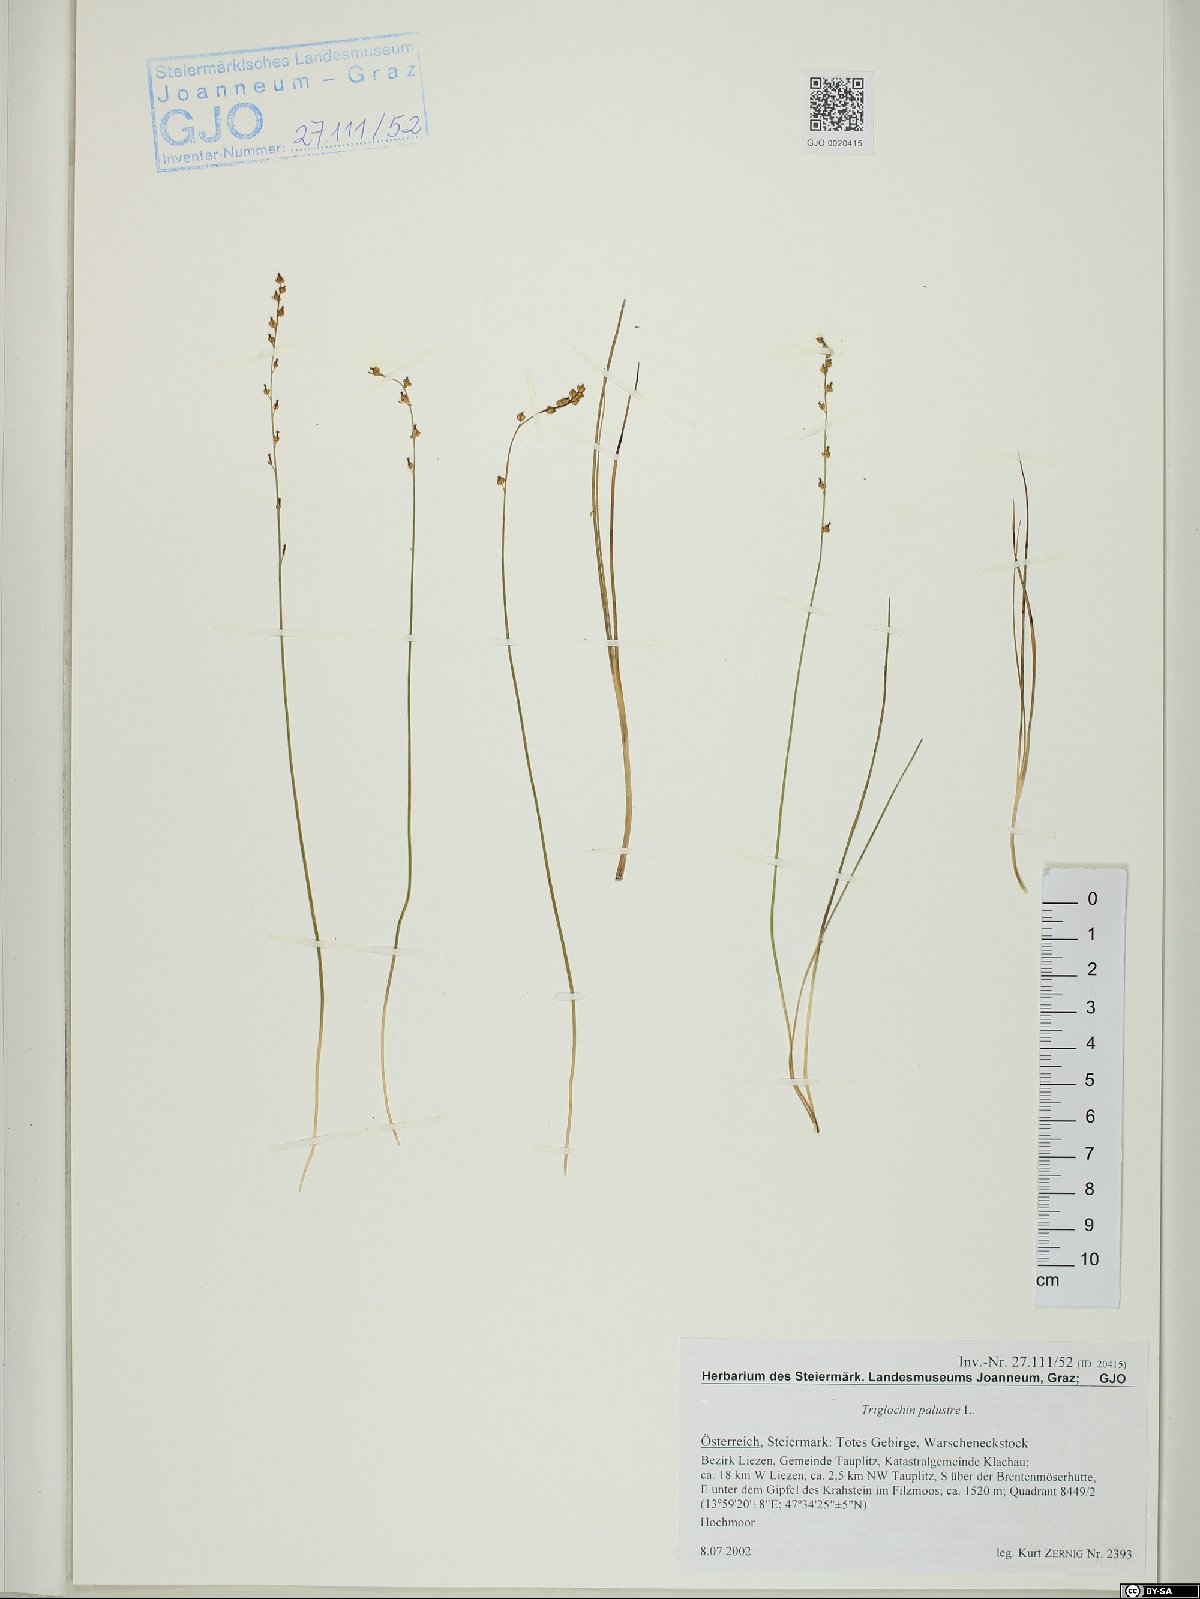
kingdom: Plantae
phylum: Tracheophyta
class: Liliopsida
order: Alismatales
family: Juncaginaceae
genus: Triglochin
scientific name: Triglochin palustris
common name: Marsh arrowgrass
